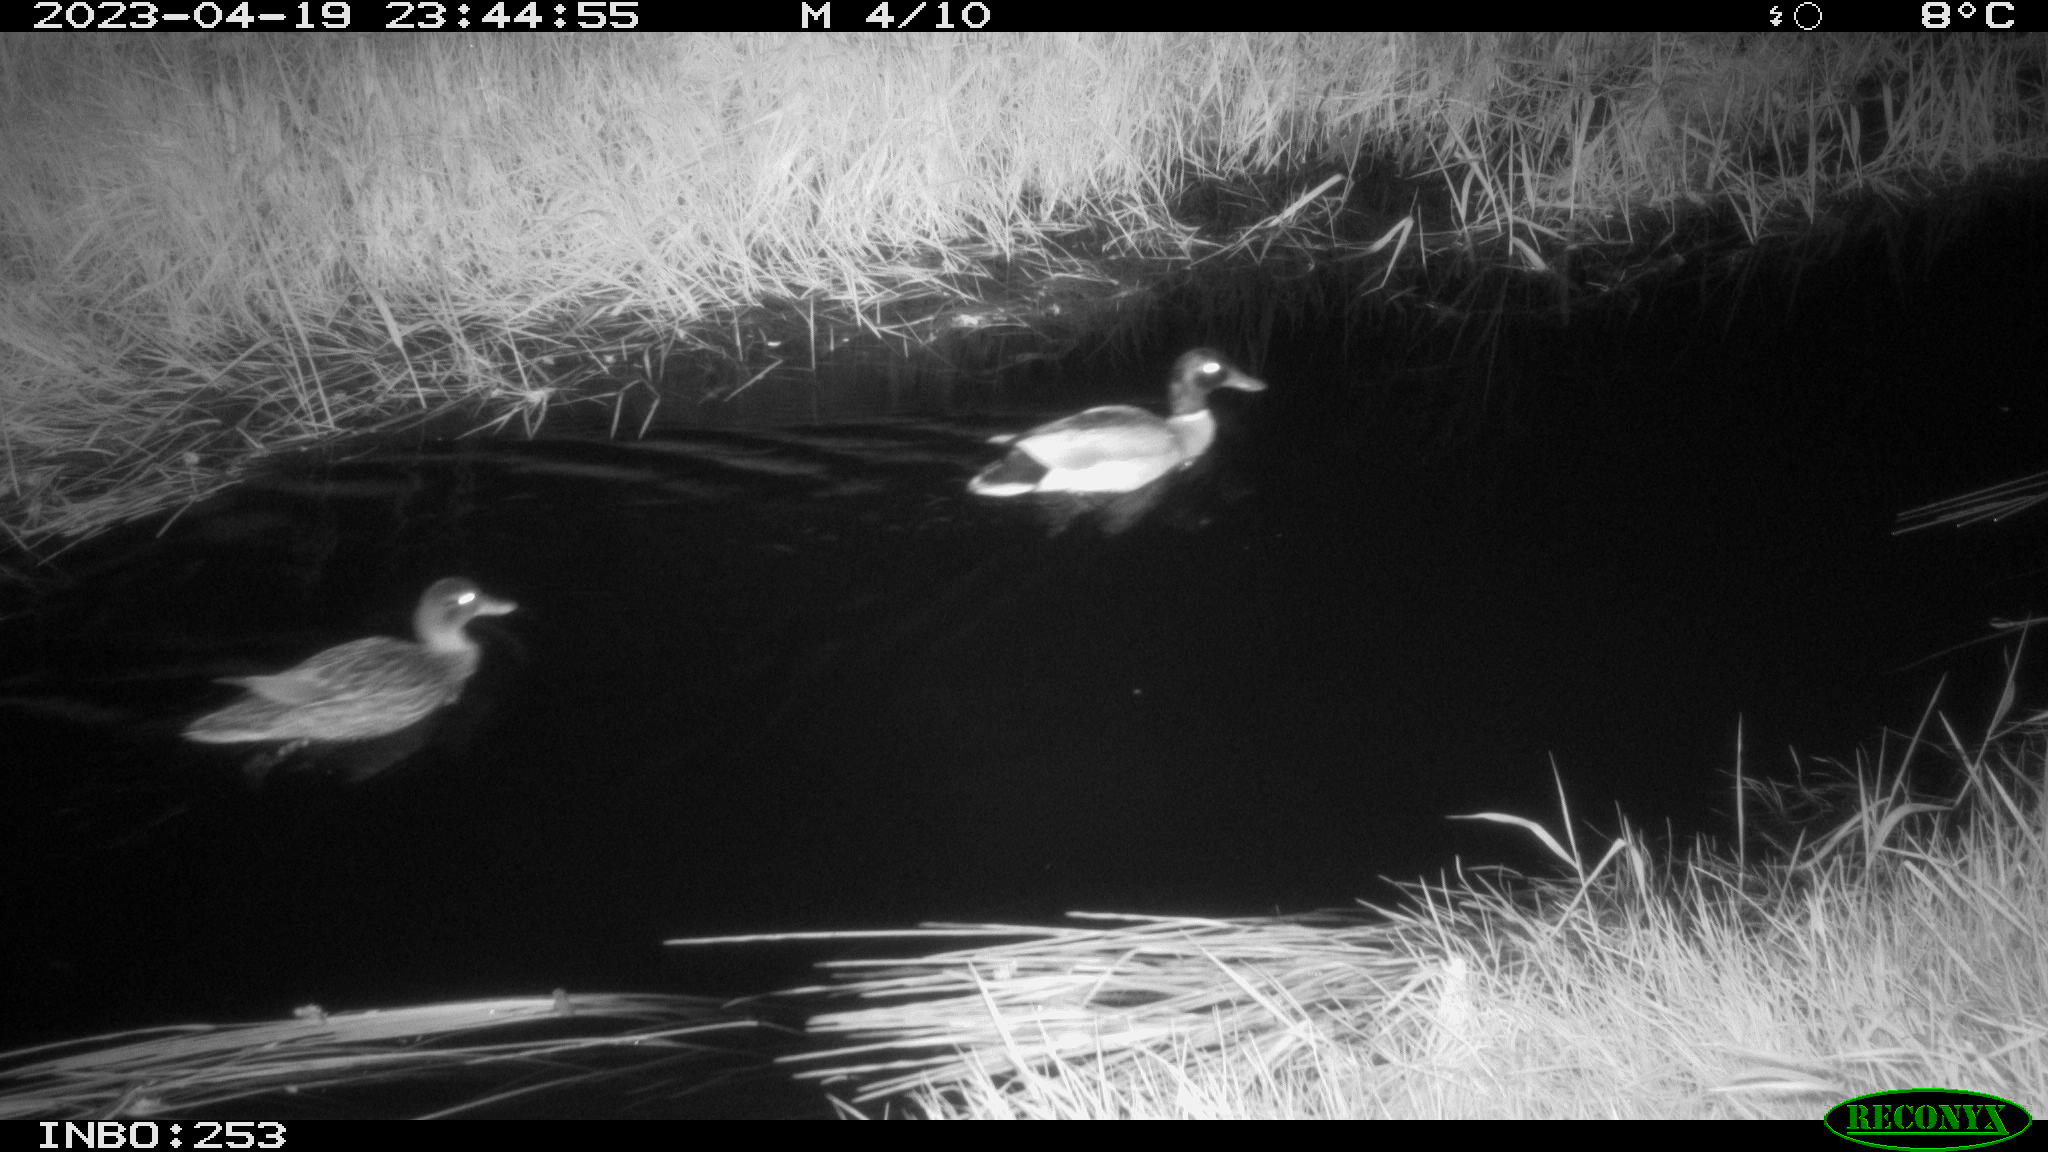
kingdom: Animalia
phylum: Chordata
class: Aves
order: Anseriformes
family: Anatidae
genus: Anas
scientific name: Anas
